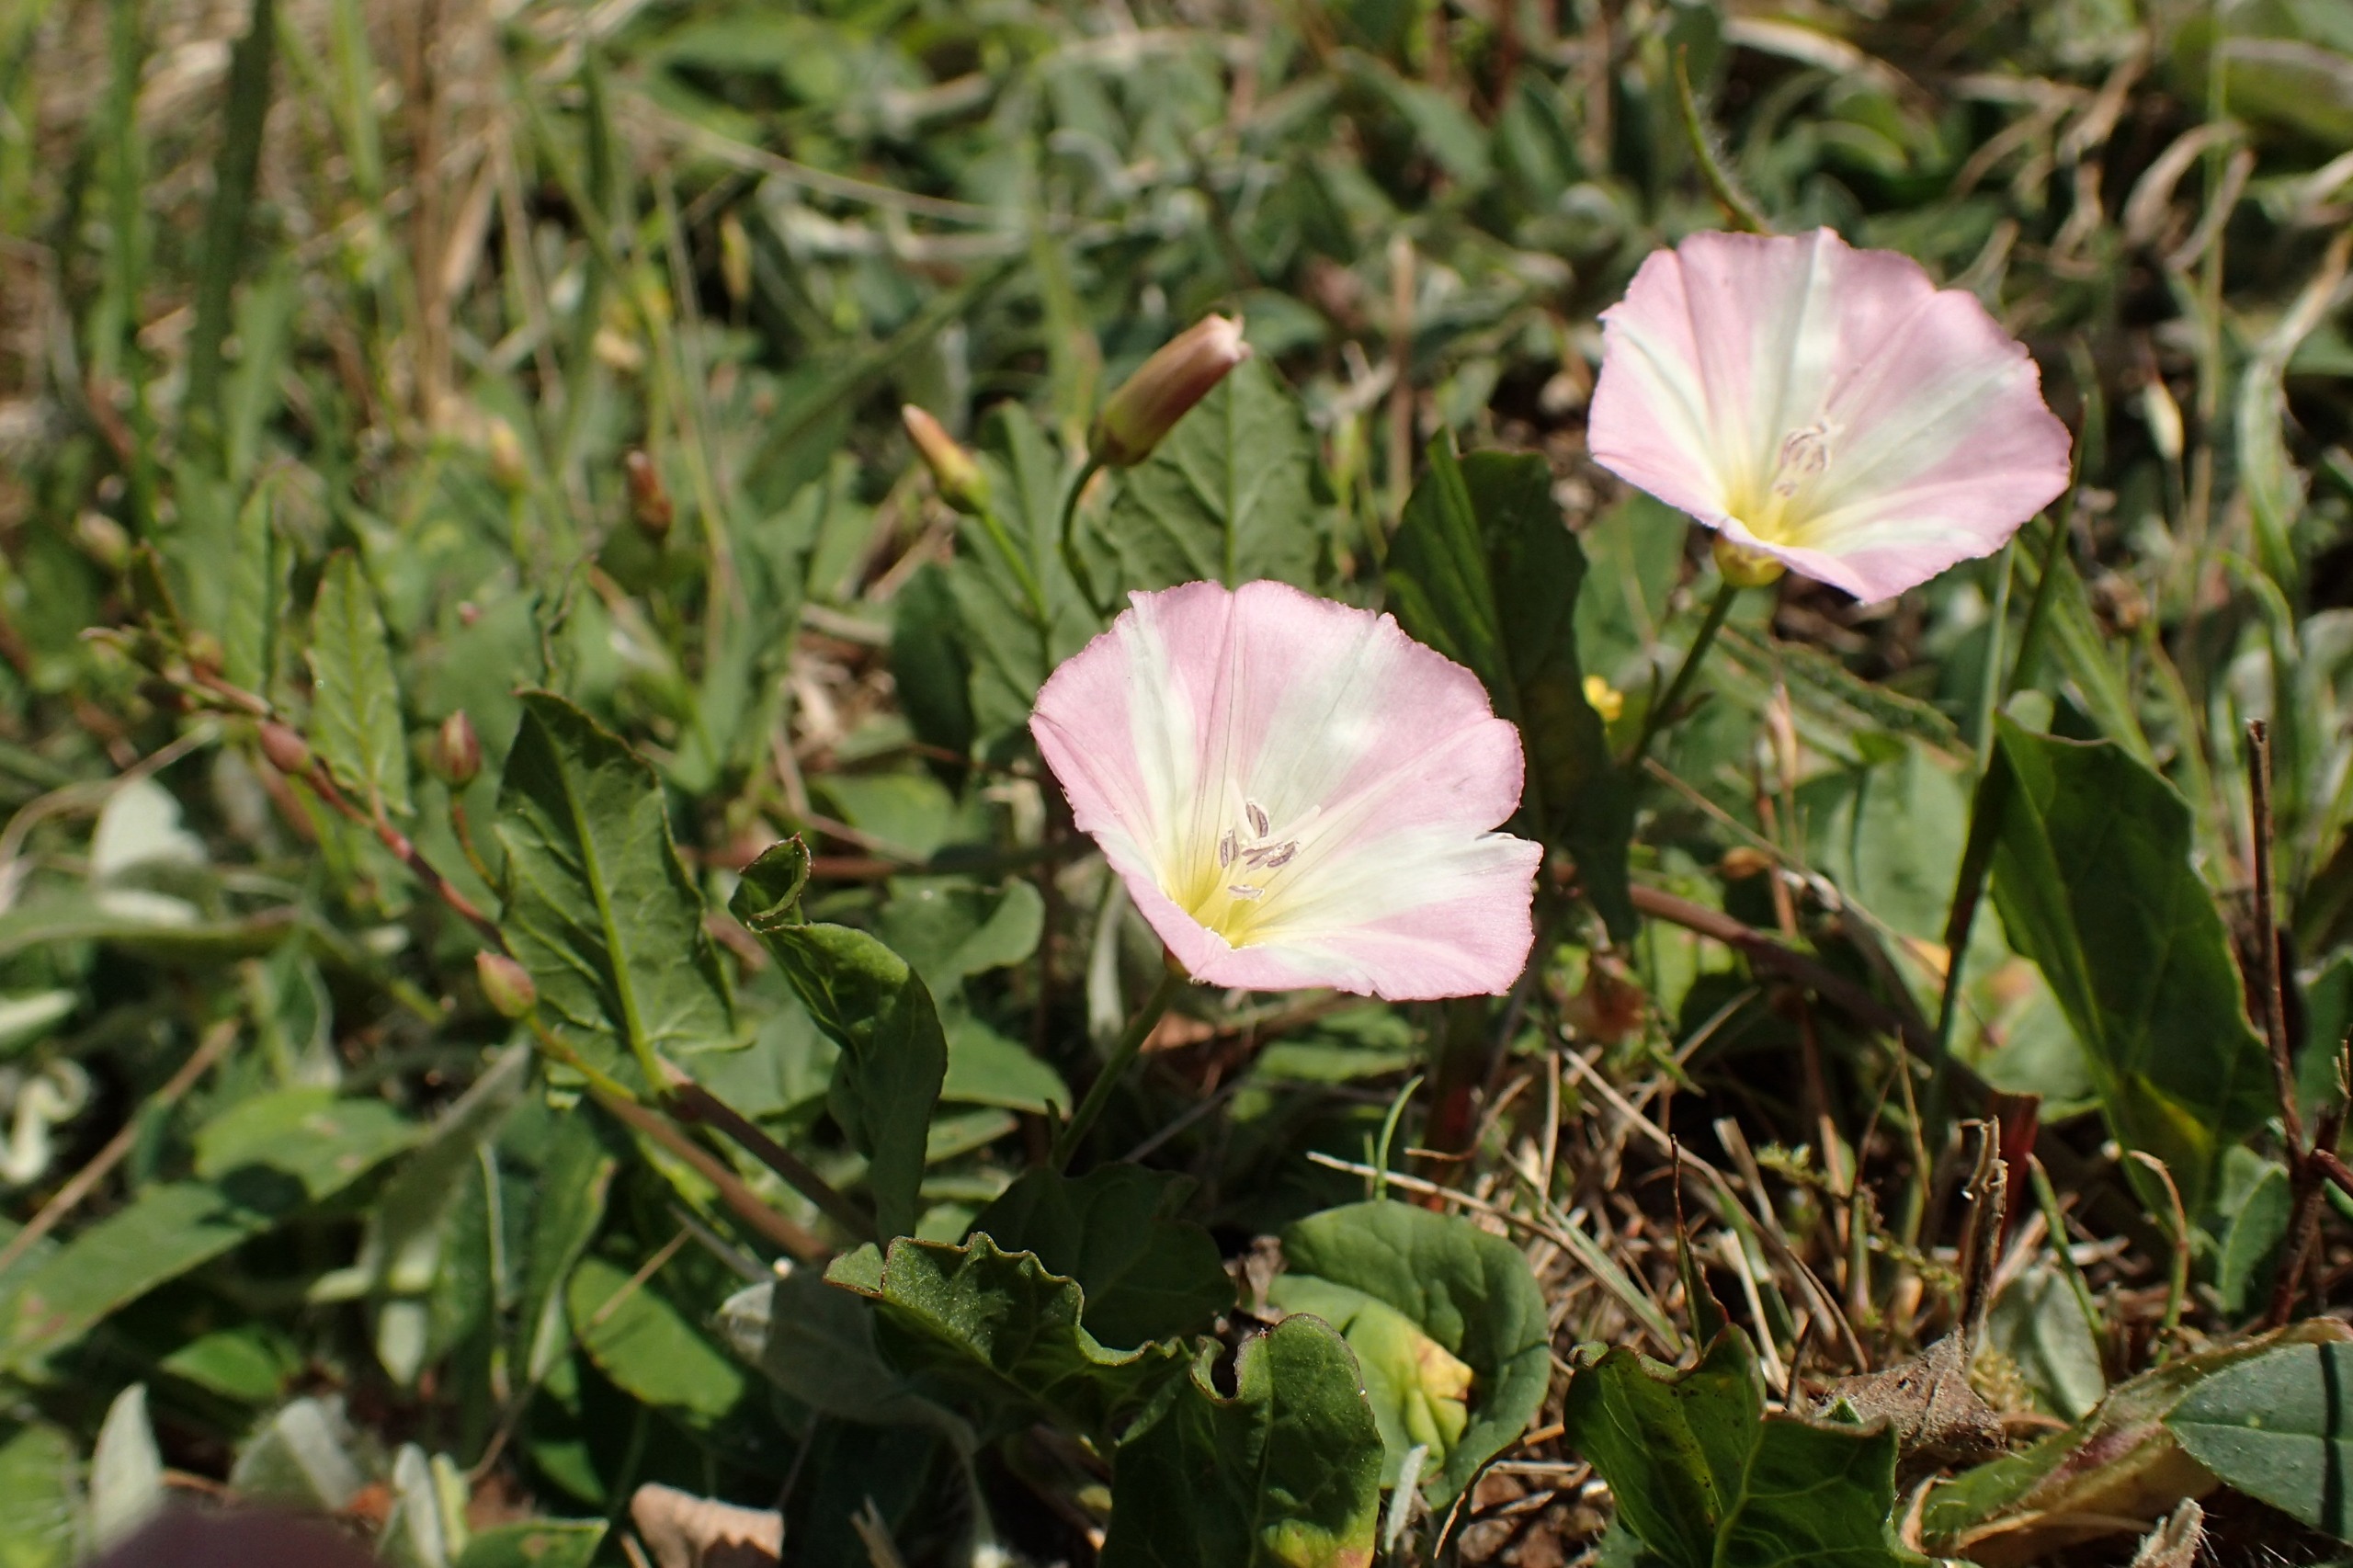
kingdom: Plantae
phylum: Tracheophyta
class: Magnoliopsida
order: Solanales
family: Convolvulaceae
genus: Convolvulus
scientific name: Convolvulus arvensis
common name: Ager-snerle
